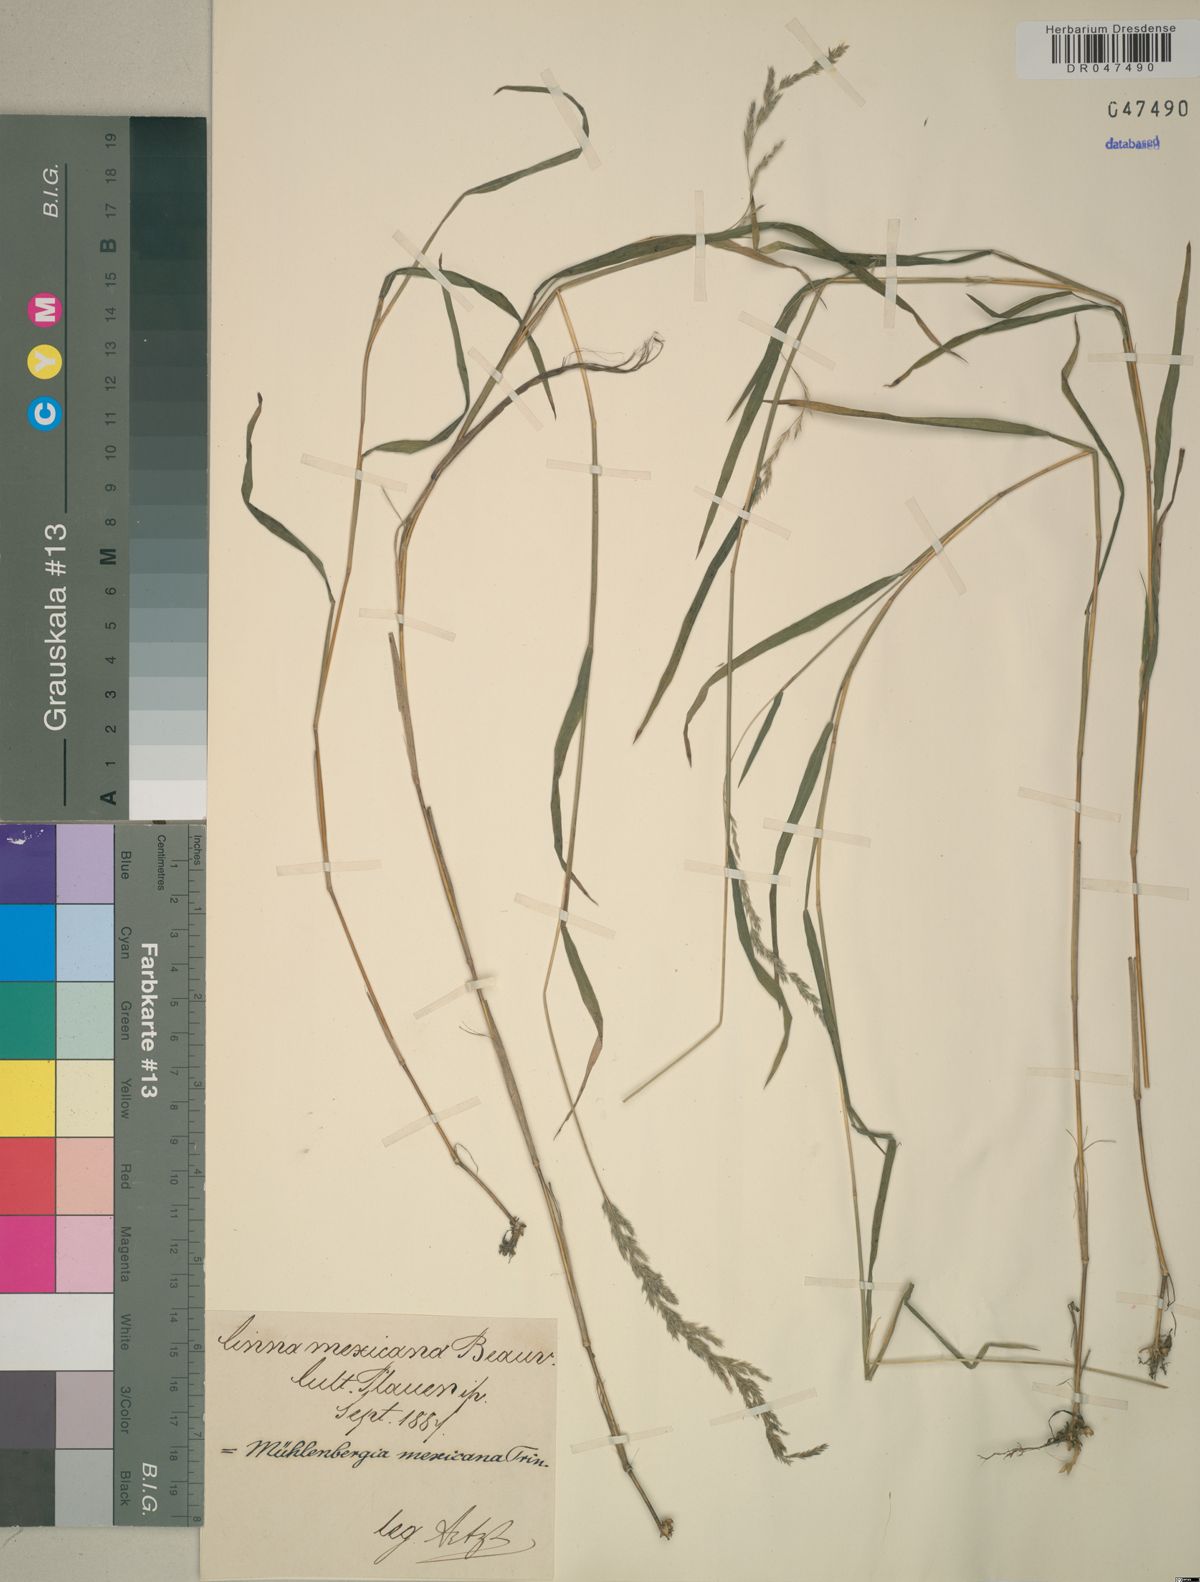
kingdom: Plantae
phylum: Tracheophyta
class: Liliopsida
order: Poales
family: Poaceae
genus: Muhlenbergia
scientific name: Muhlenbergia mexicana
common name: Mexican muhly
